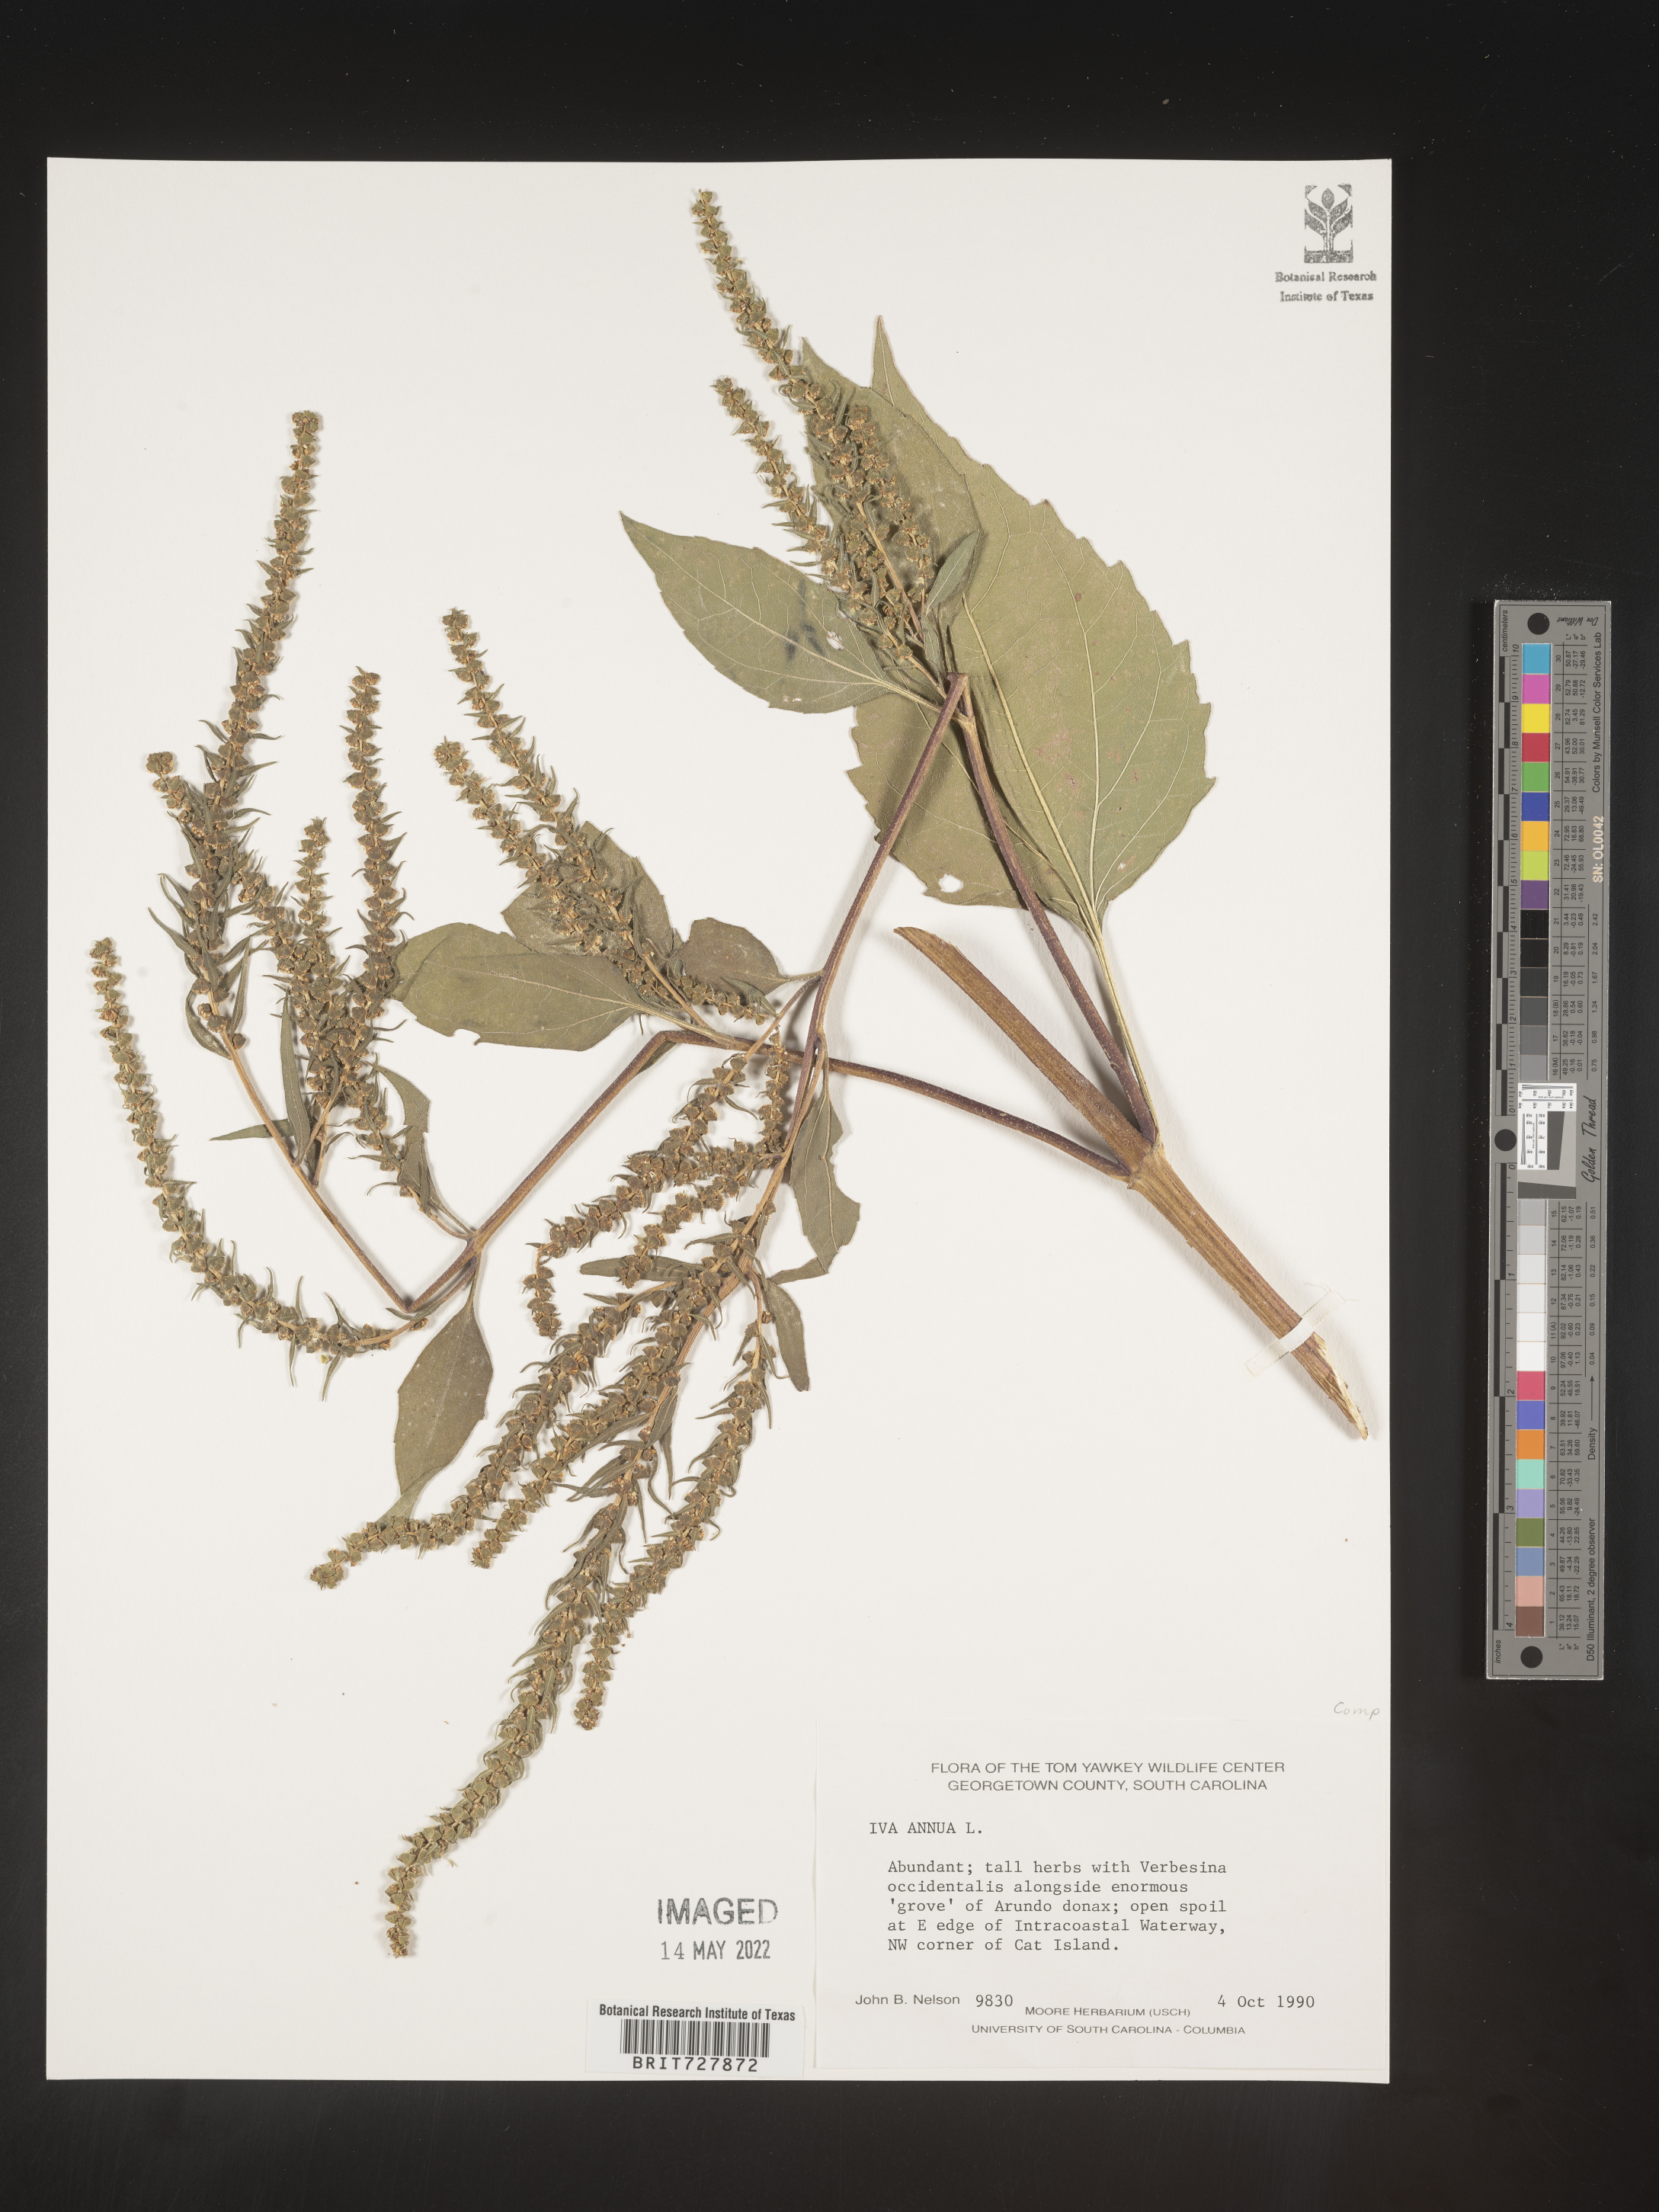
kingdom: Plantae
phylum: Tracheophyta
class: Magnoliopsida
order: Asterales
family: Asteraceae
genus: Iva
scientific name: Iva annua
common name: Marsh-elder
